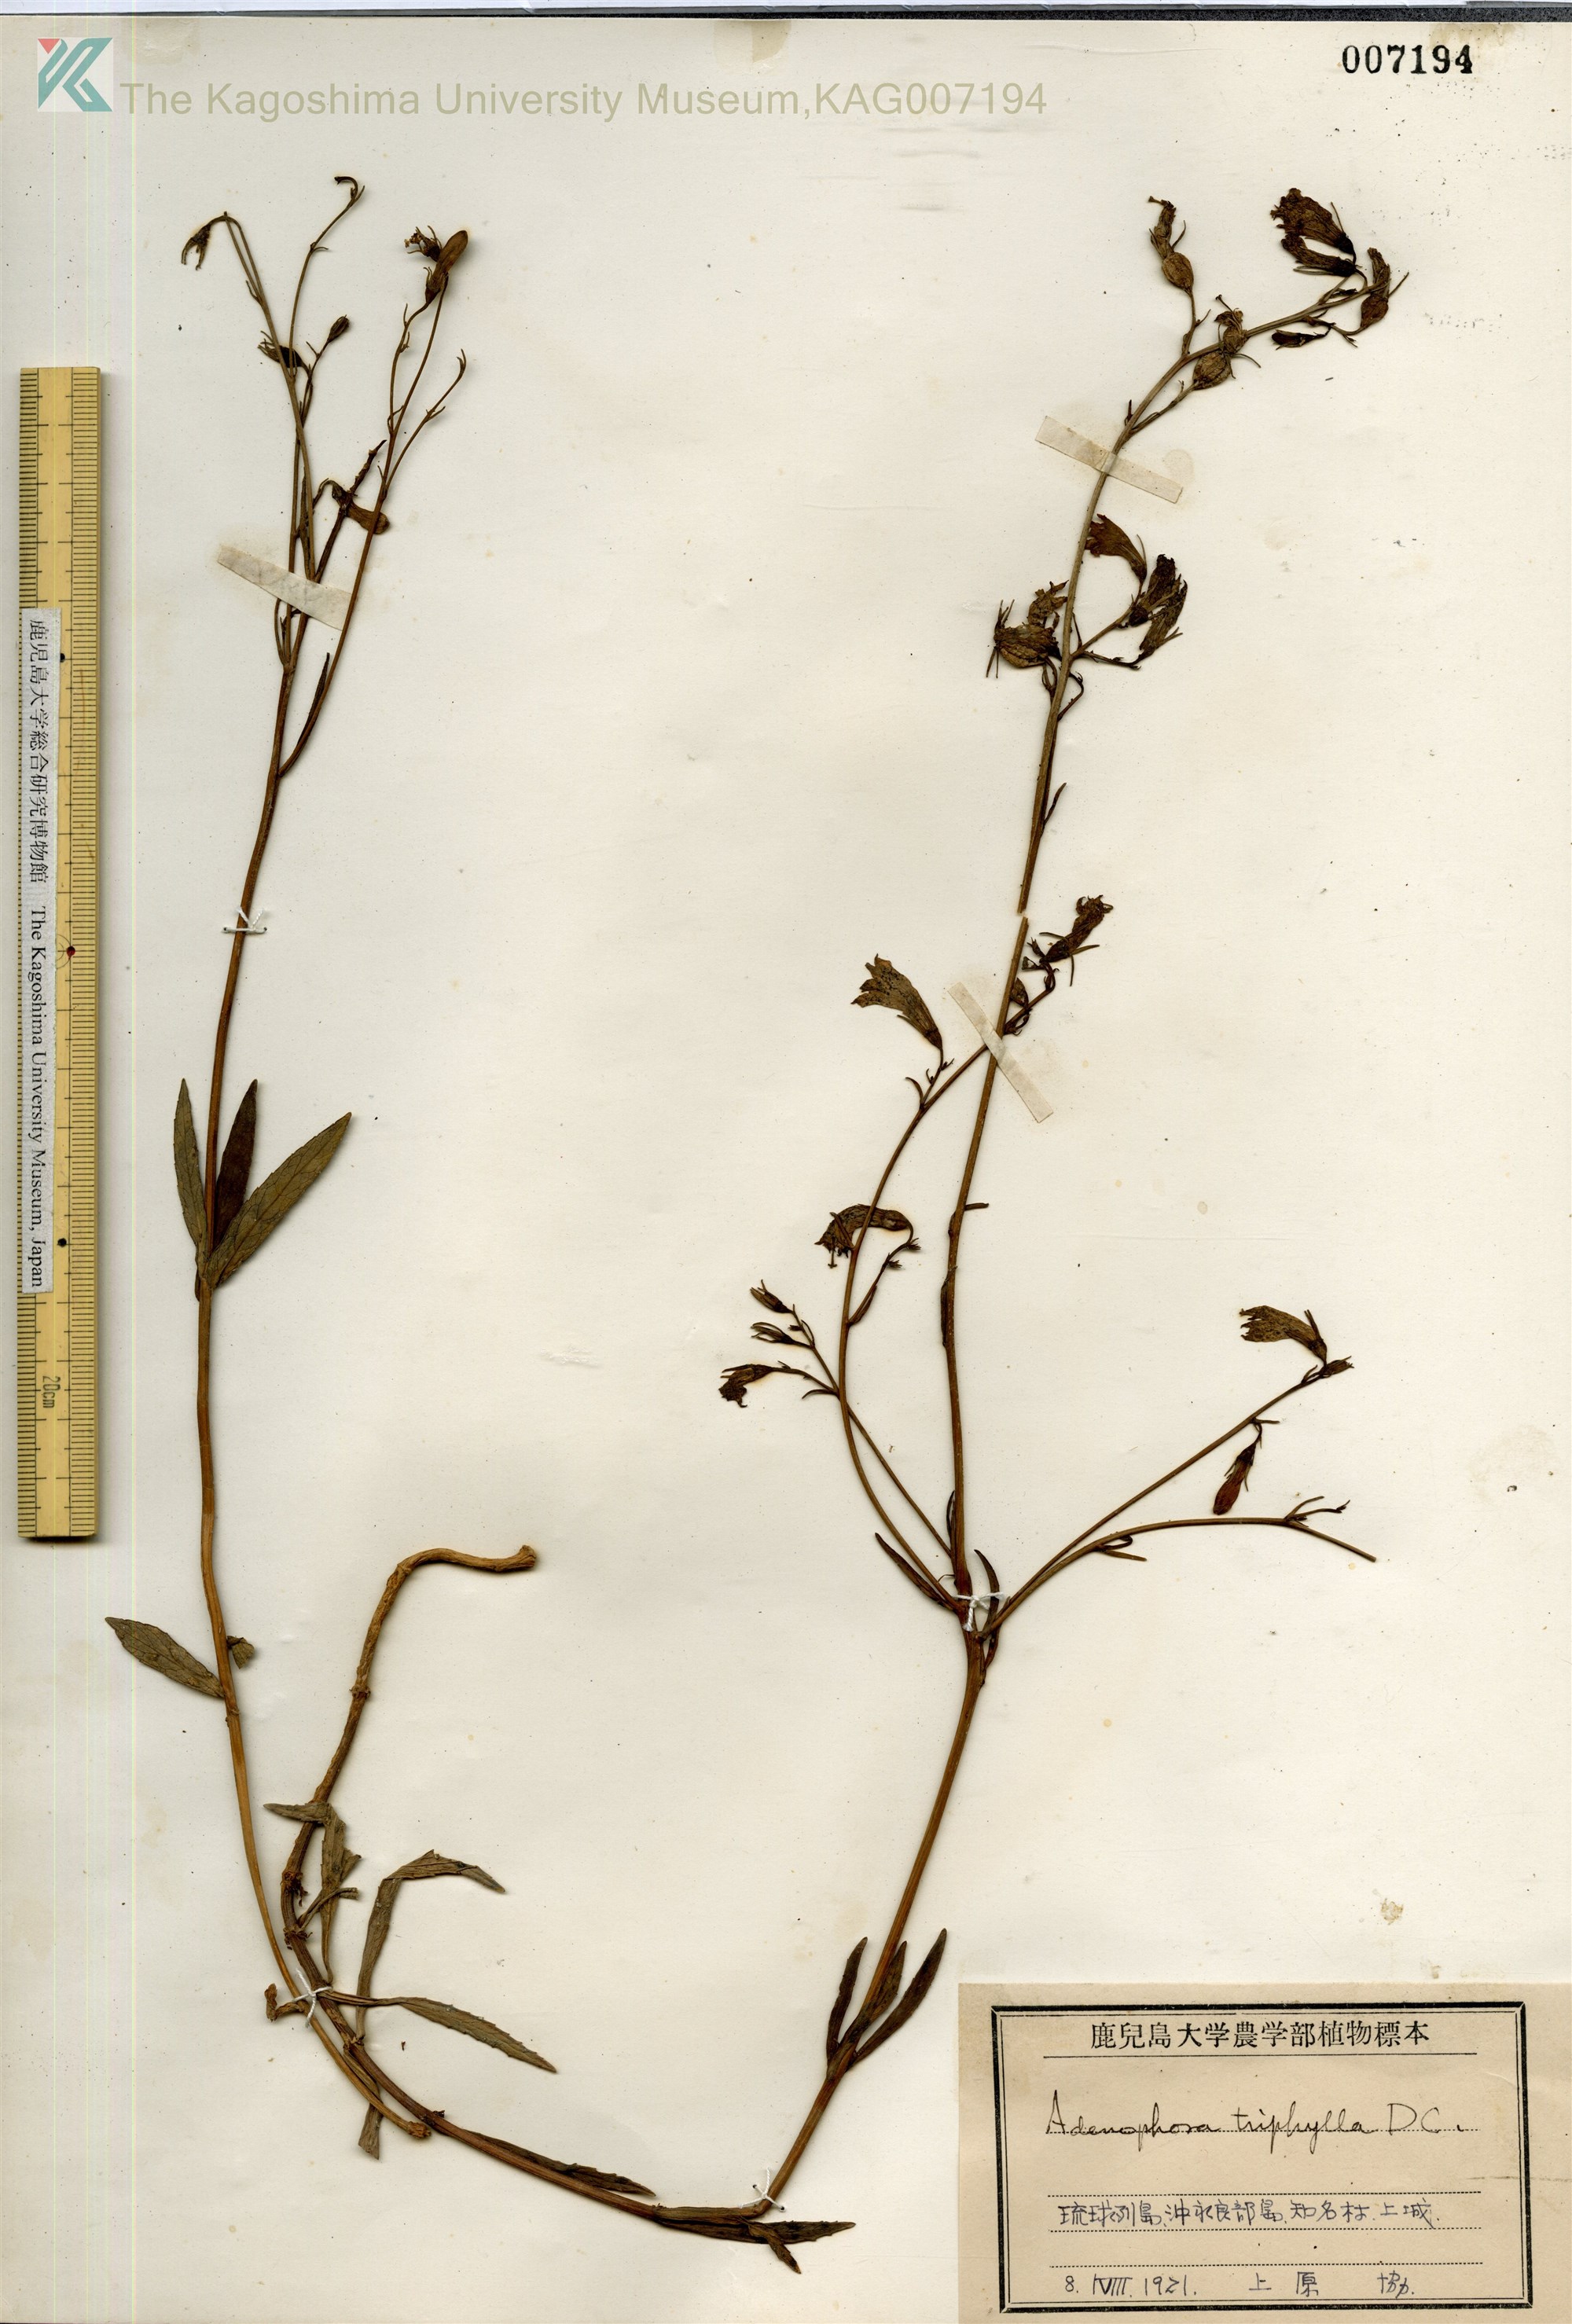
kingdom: Plantae
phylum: Tracheophyta
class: Magnoliopsida
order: Asterales
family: Campanulaceae
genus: Adenophora
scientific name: Adenophora tashiroi
